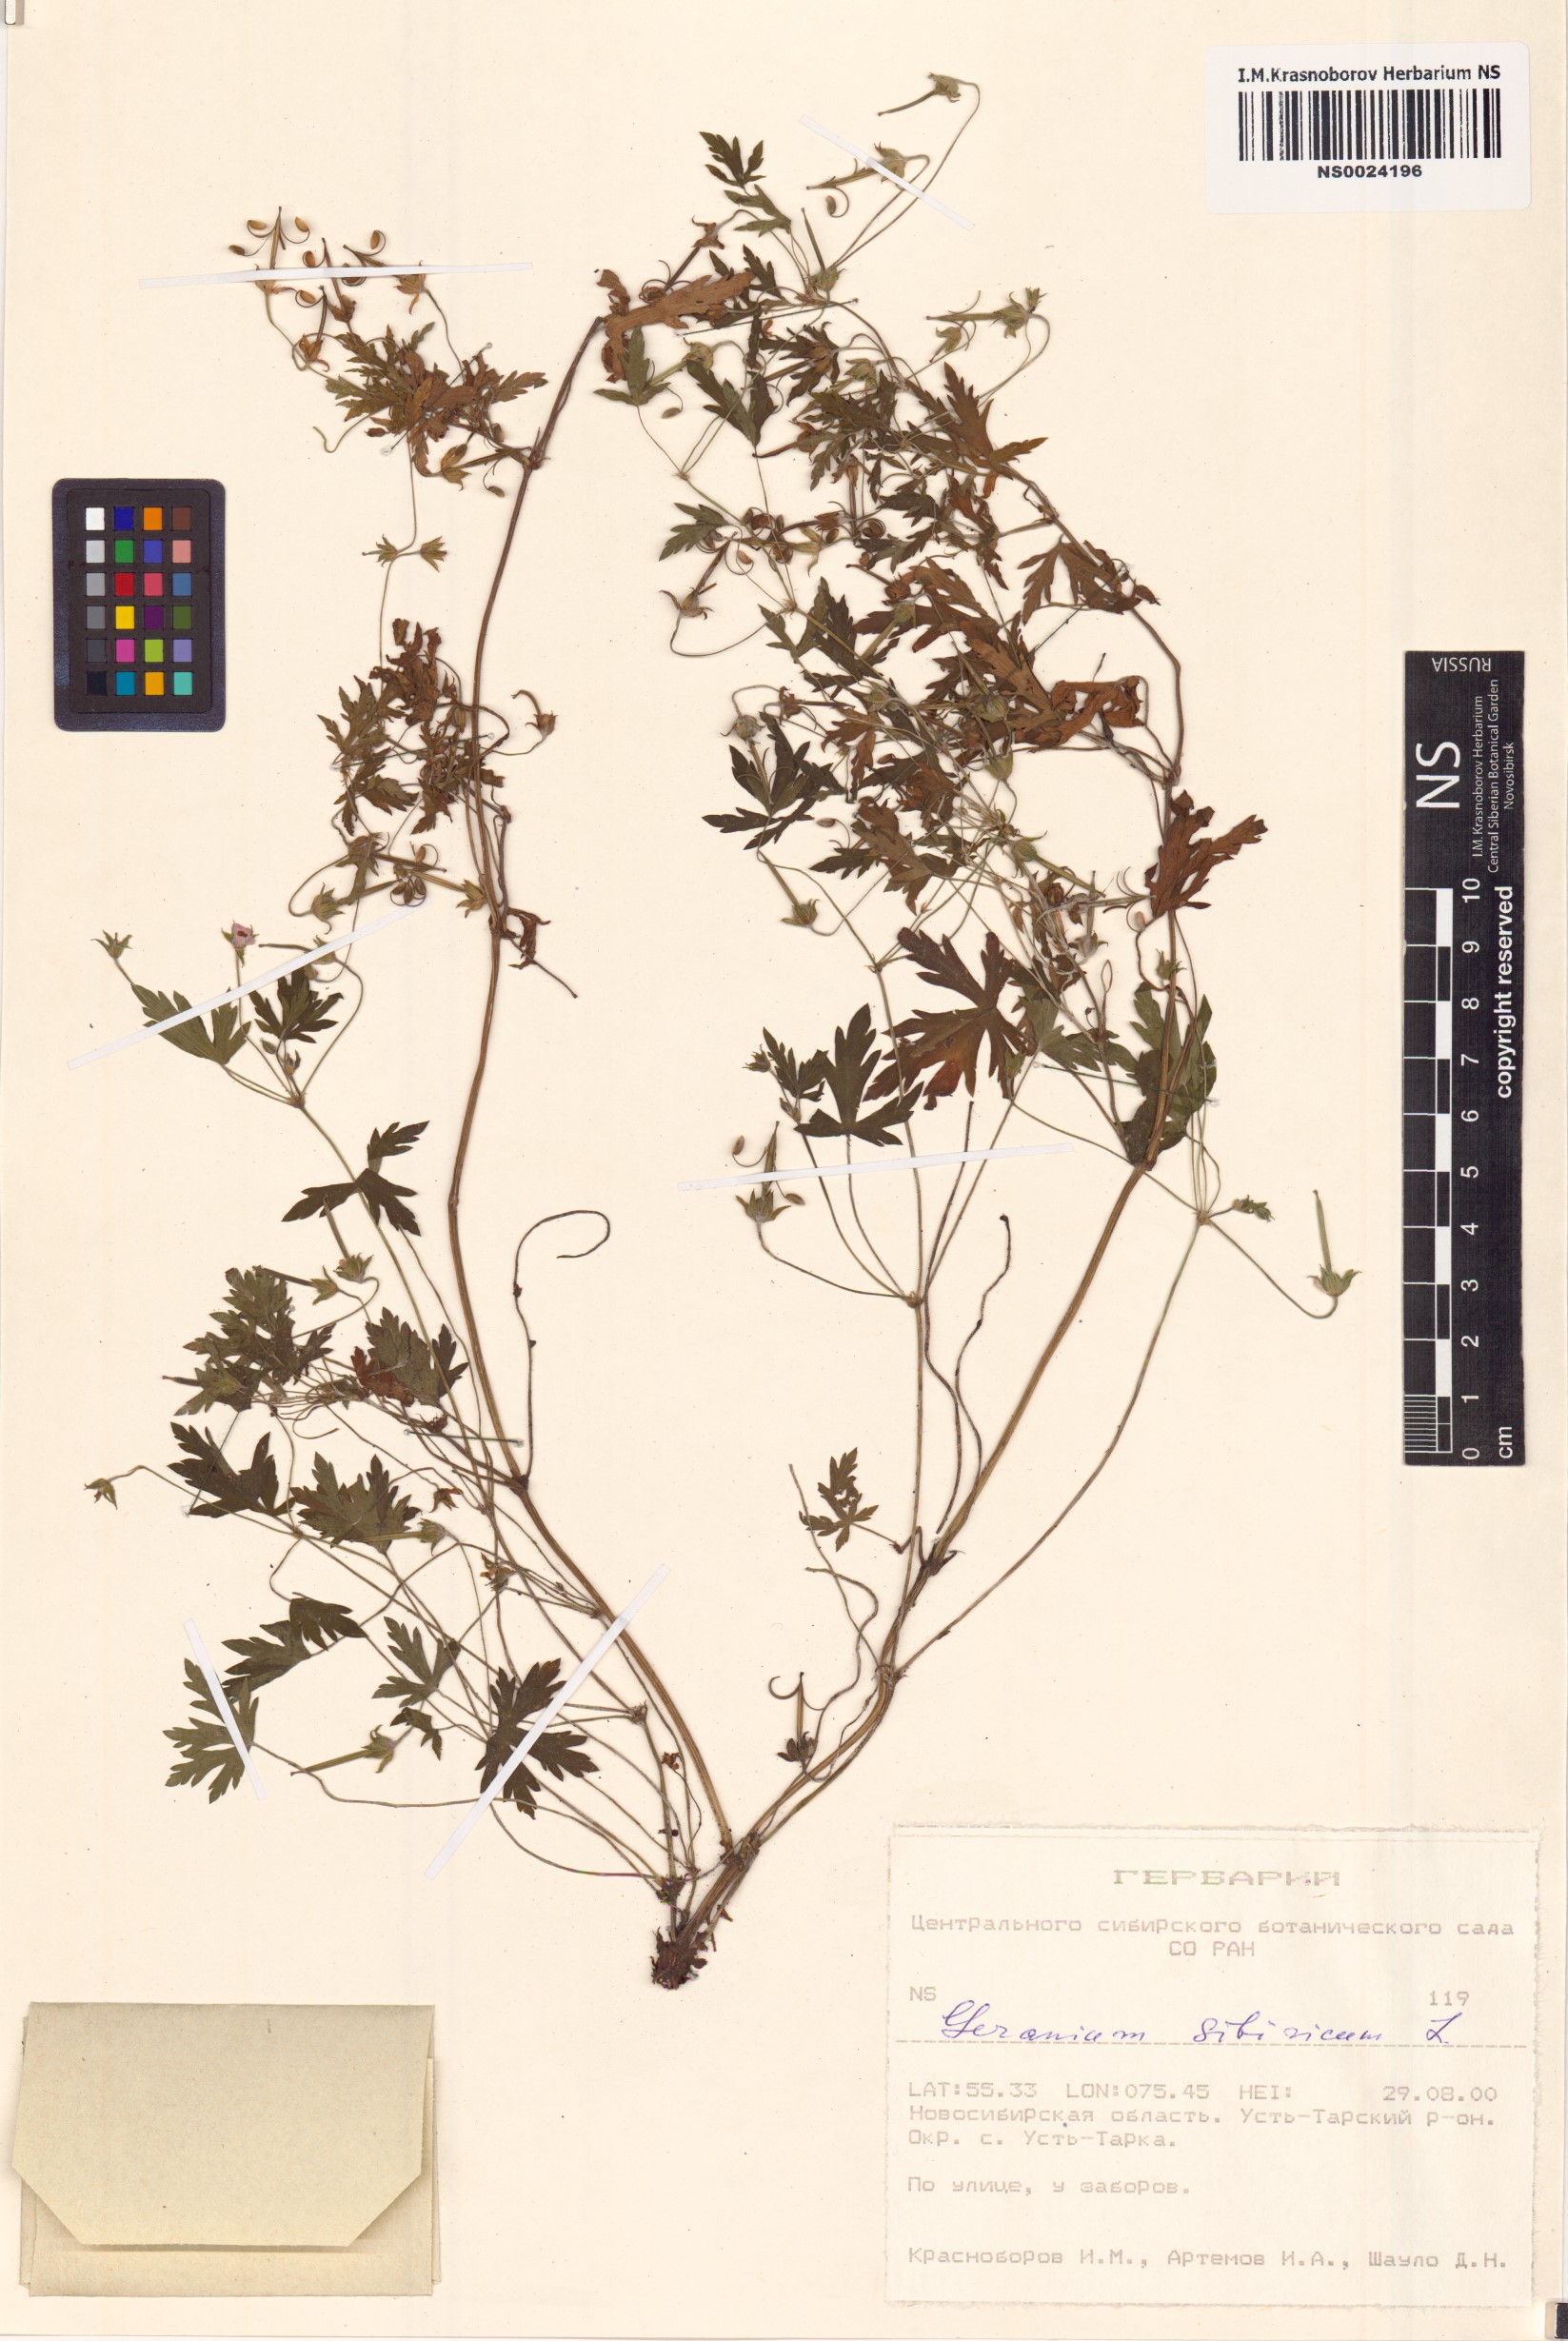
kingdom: Plantae
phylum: Tracheophyta
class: Magnoliopsida
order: Geraniales
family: Geraniaceae
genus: Geranium
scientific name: Geranium sibiricum
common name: Siberian crane's-bill
